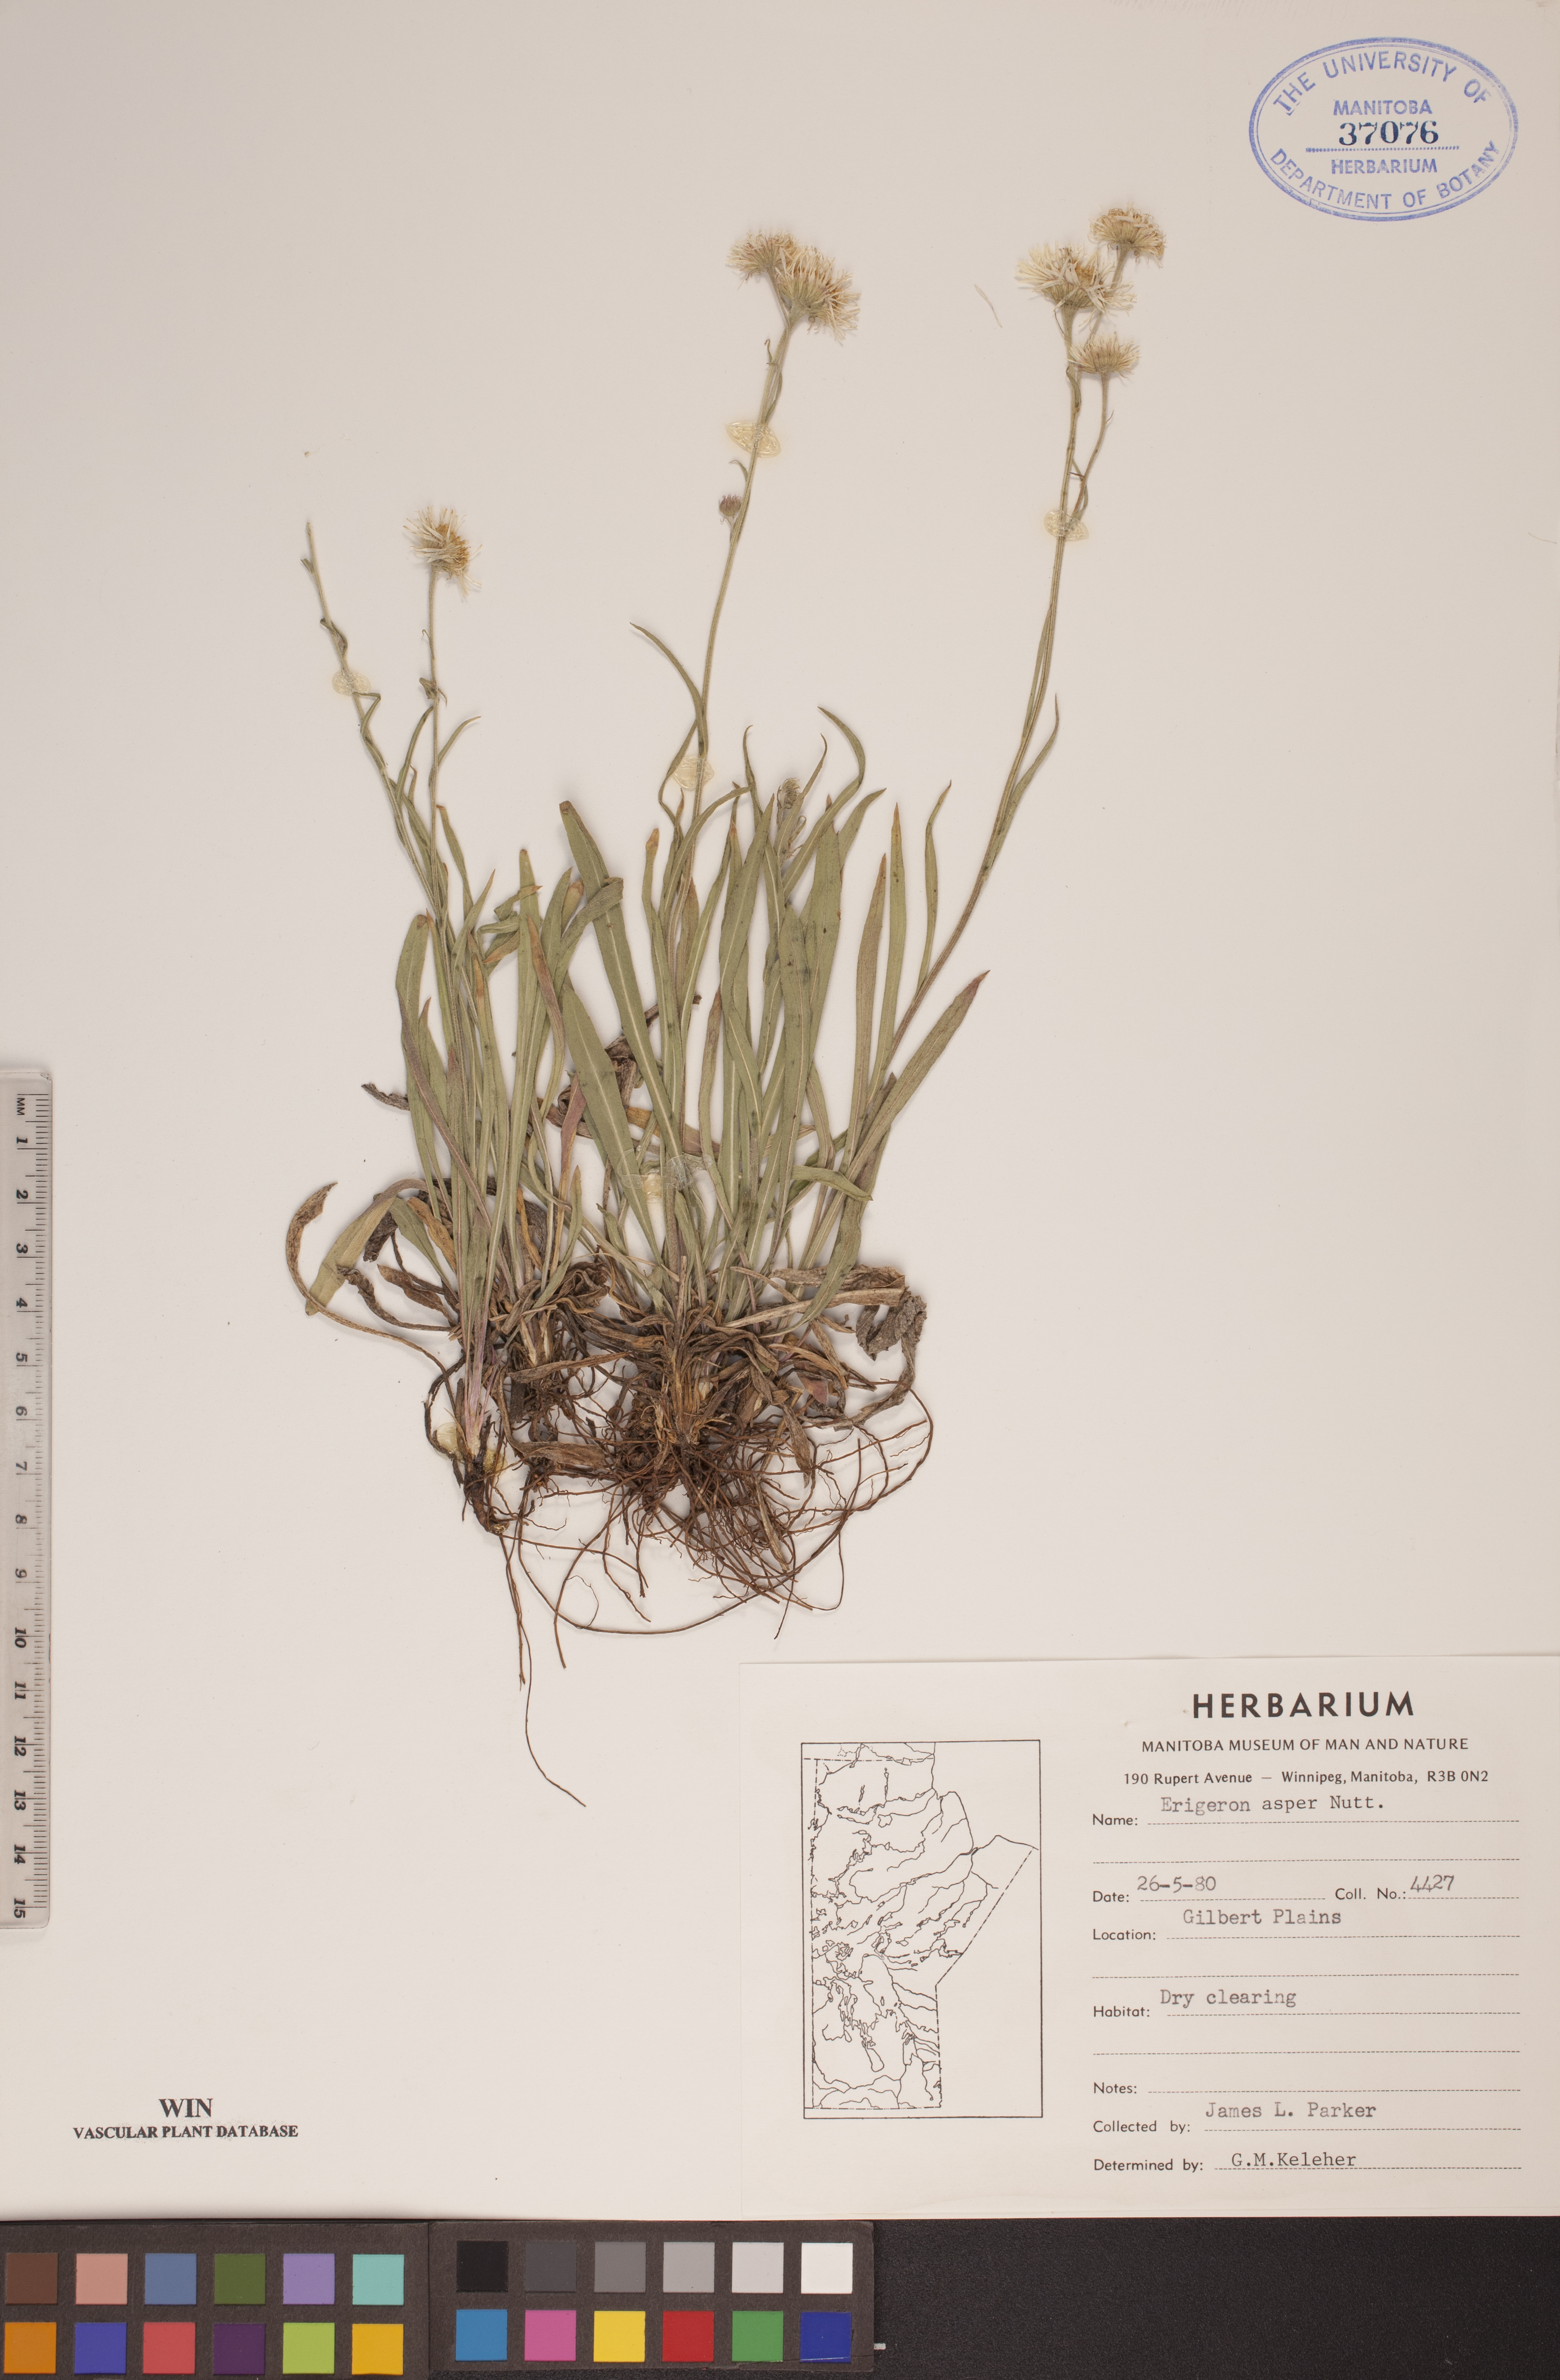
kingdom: Plantae
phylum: Tracheophyta
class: Magnoliopsida
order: Asterales
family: Asteraceae
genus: Erigeron
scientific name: Erigeron glabellus
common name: Smooth fleabane
